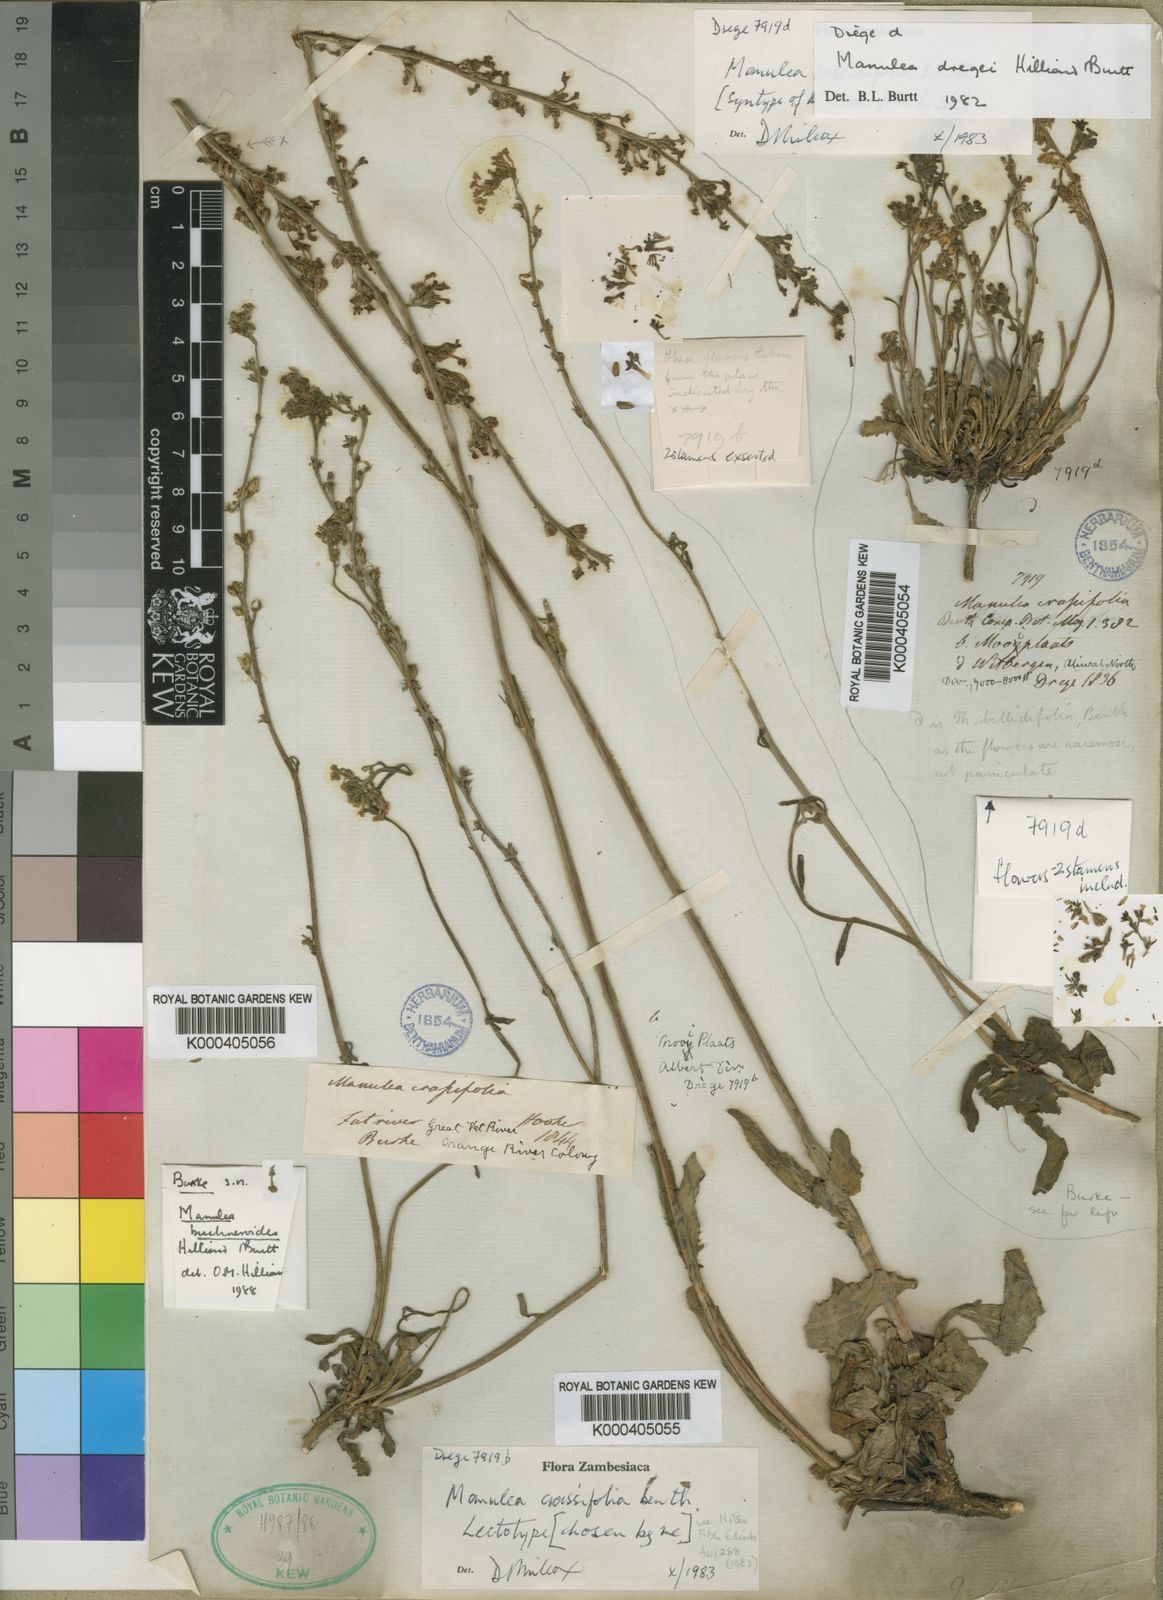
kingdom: Plantae
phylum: Tracheophyta
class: Magnoliopsida
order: Lamiales
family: Scrophulariaceae
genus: Manulea
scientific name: Manulea crassifolia
